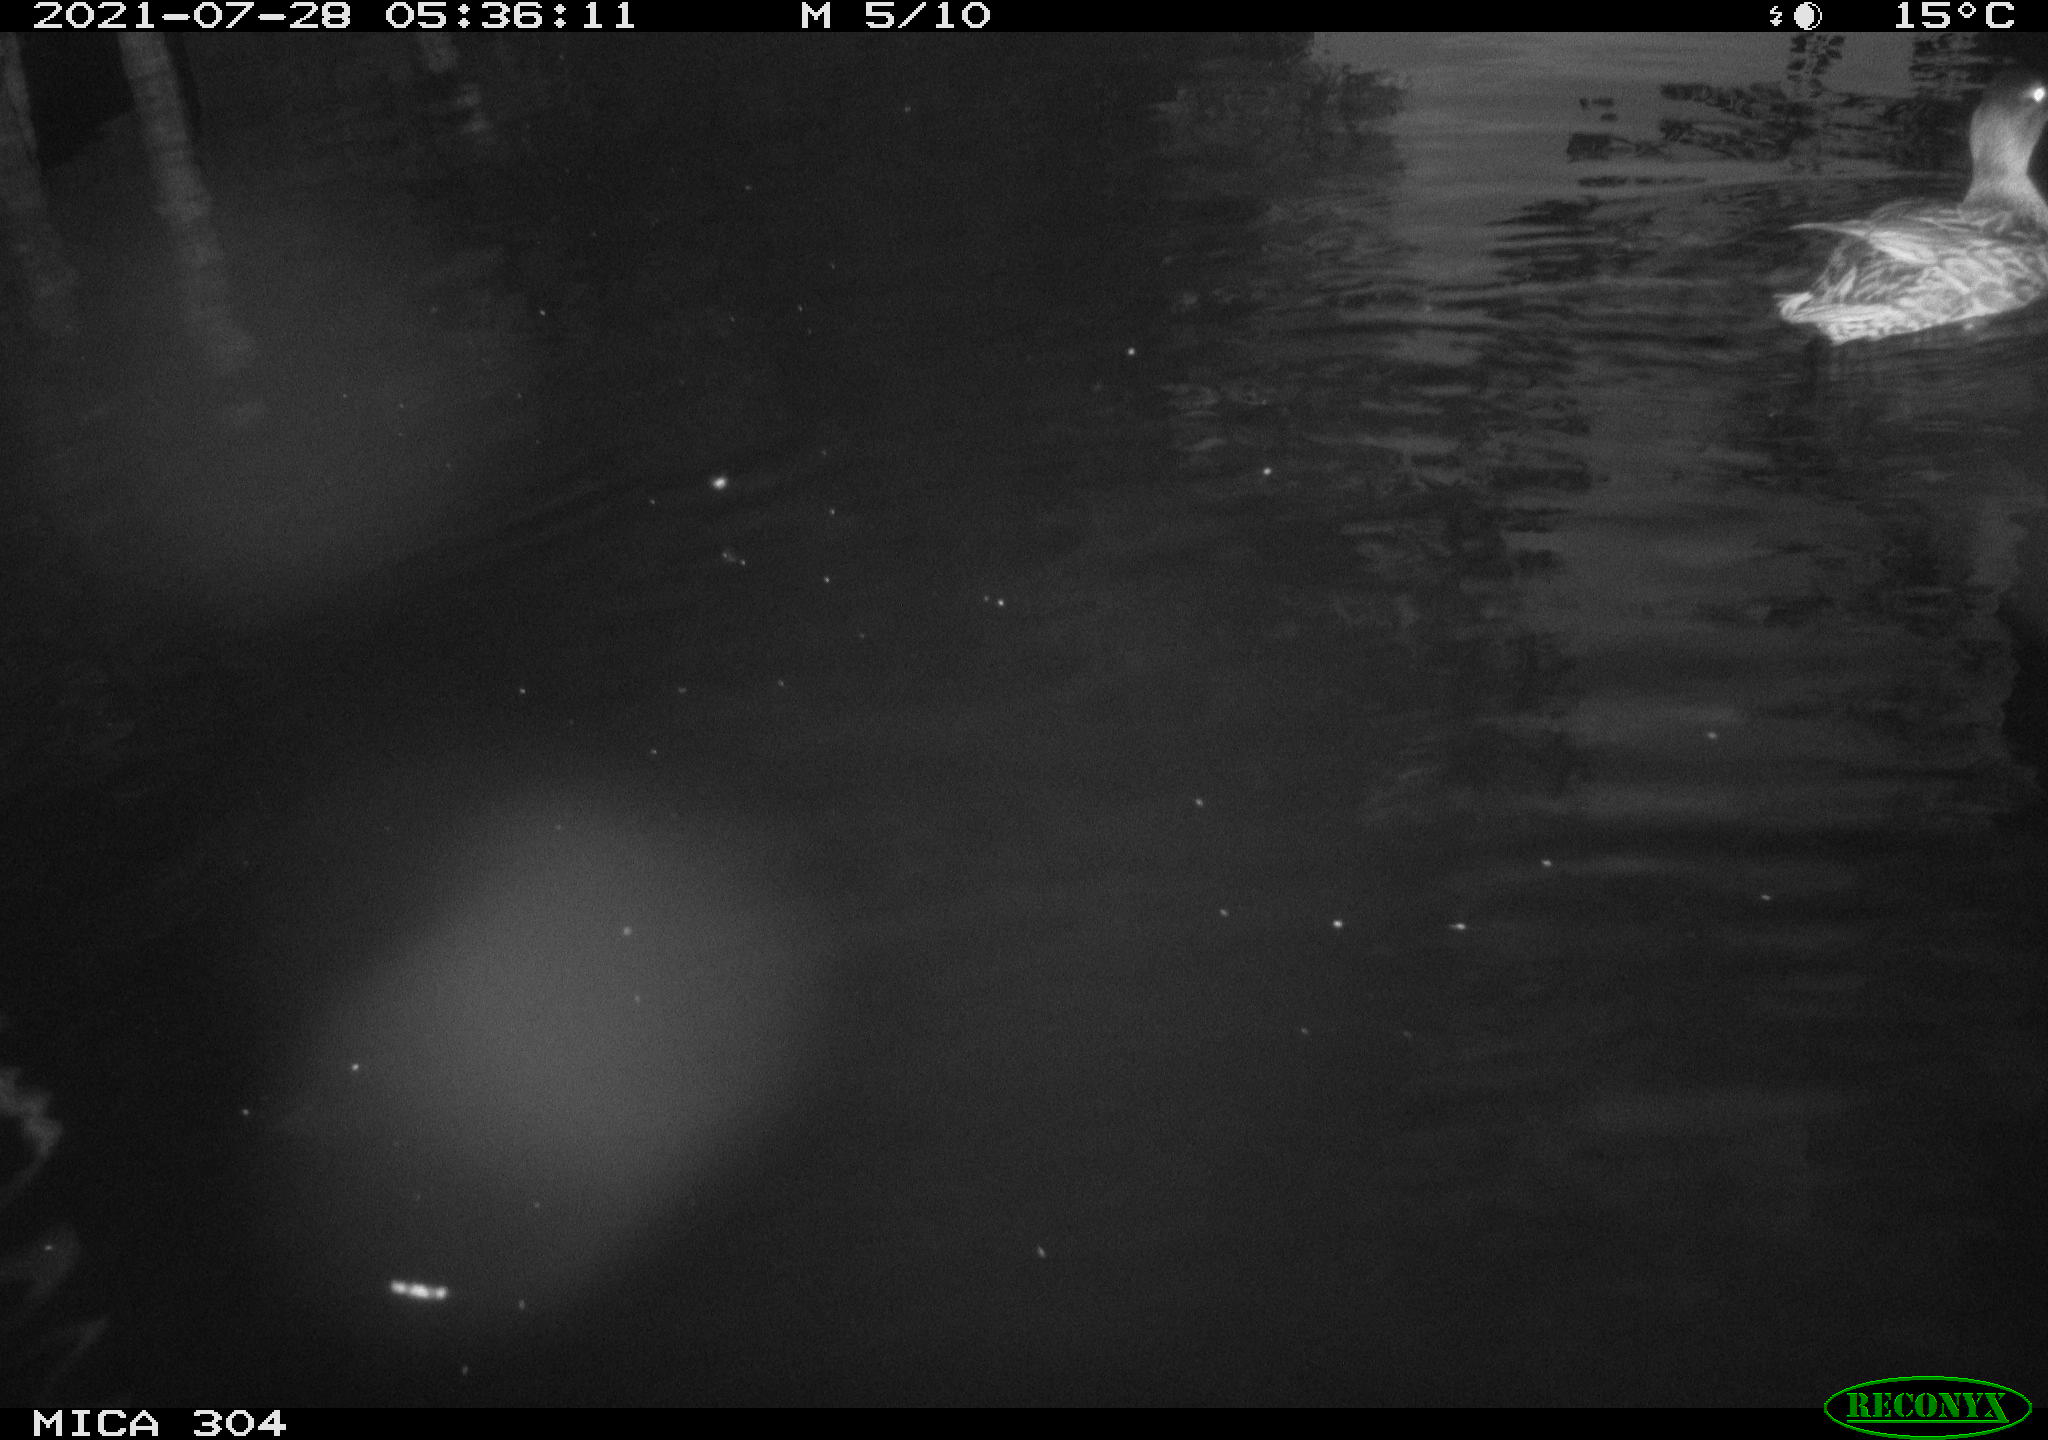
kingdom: Animalia
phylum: Chordata
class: Aves
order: Anseriformes
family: Anatidae
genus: Mareca
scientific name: Mareca strepera
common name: Gadwall
